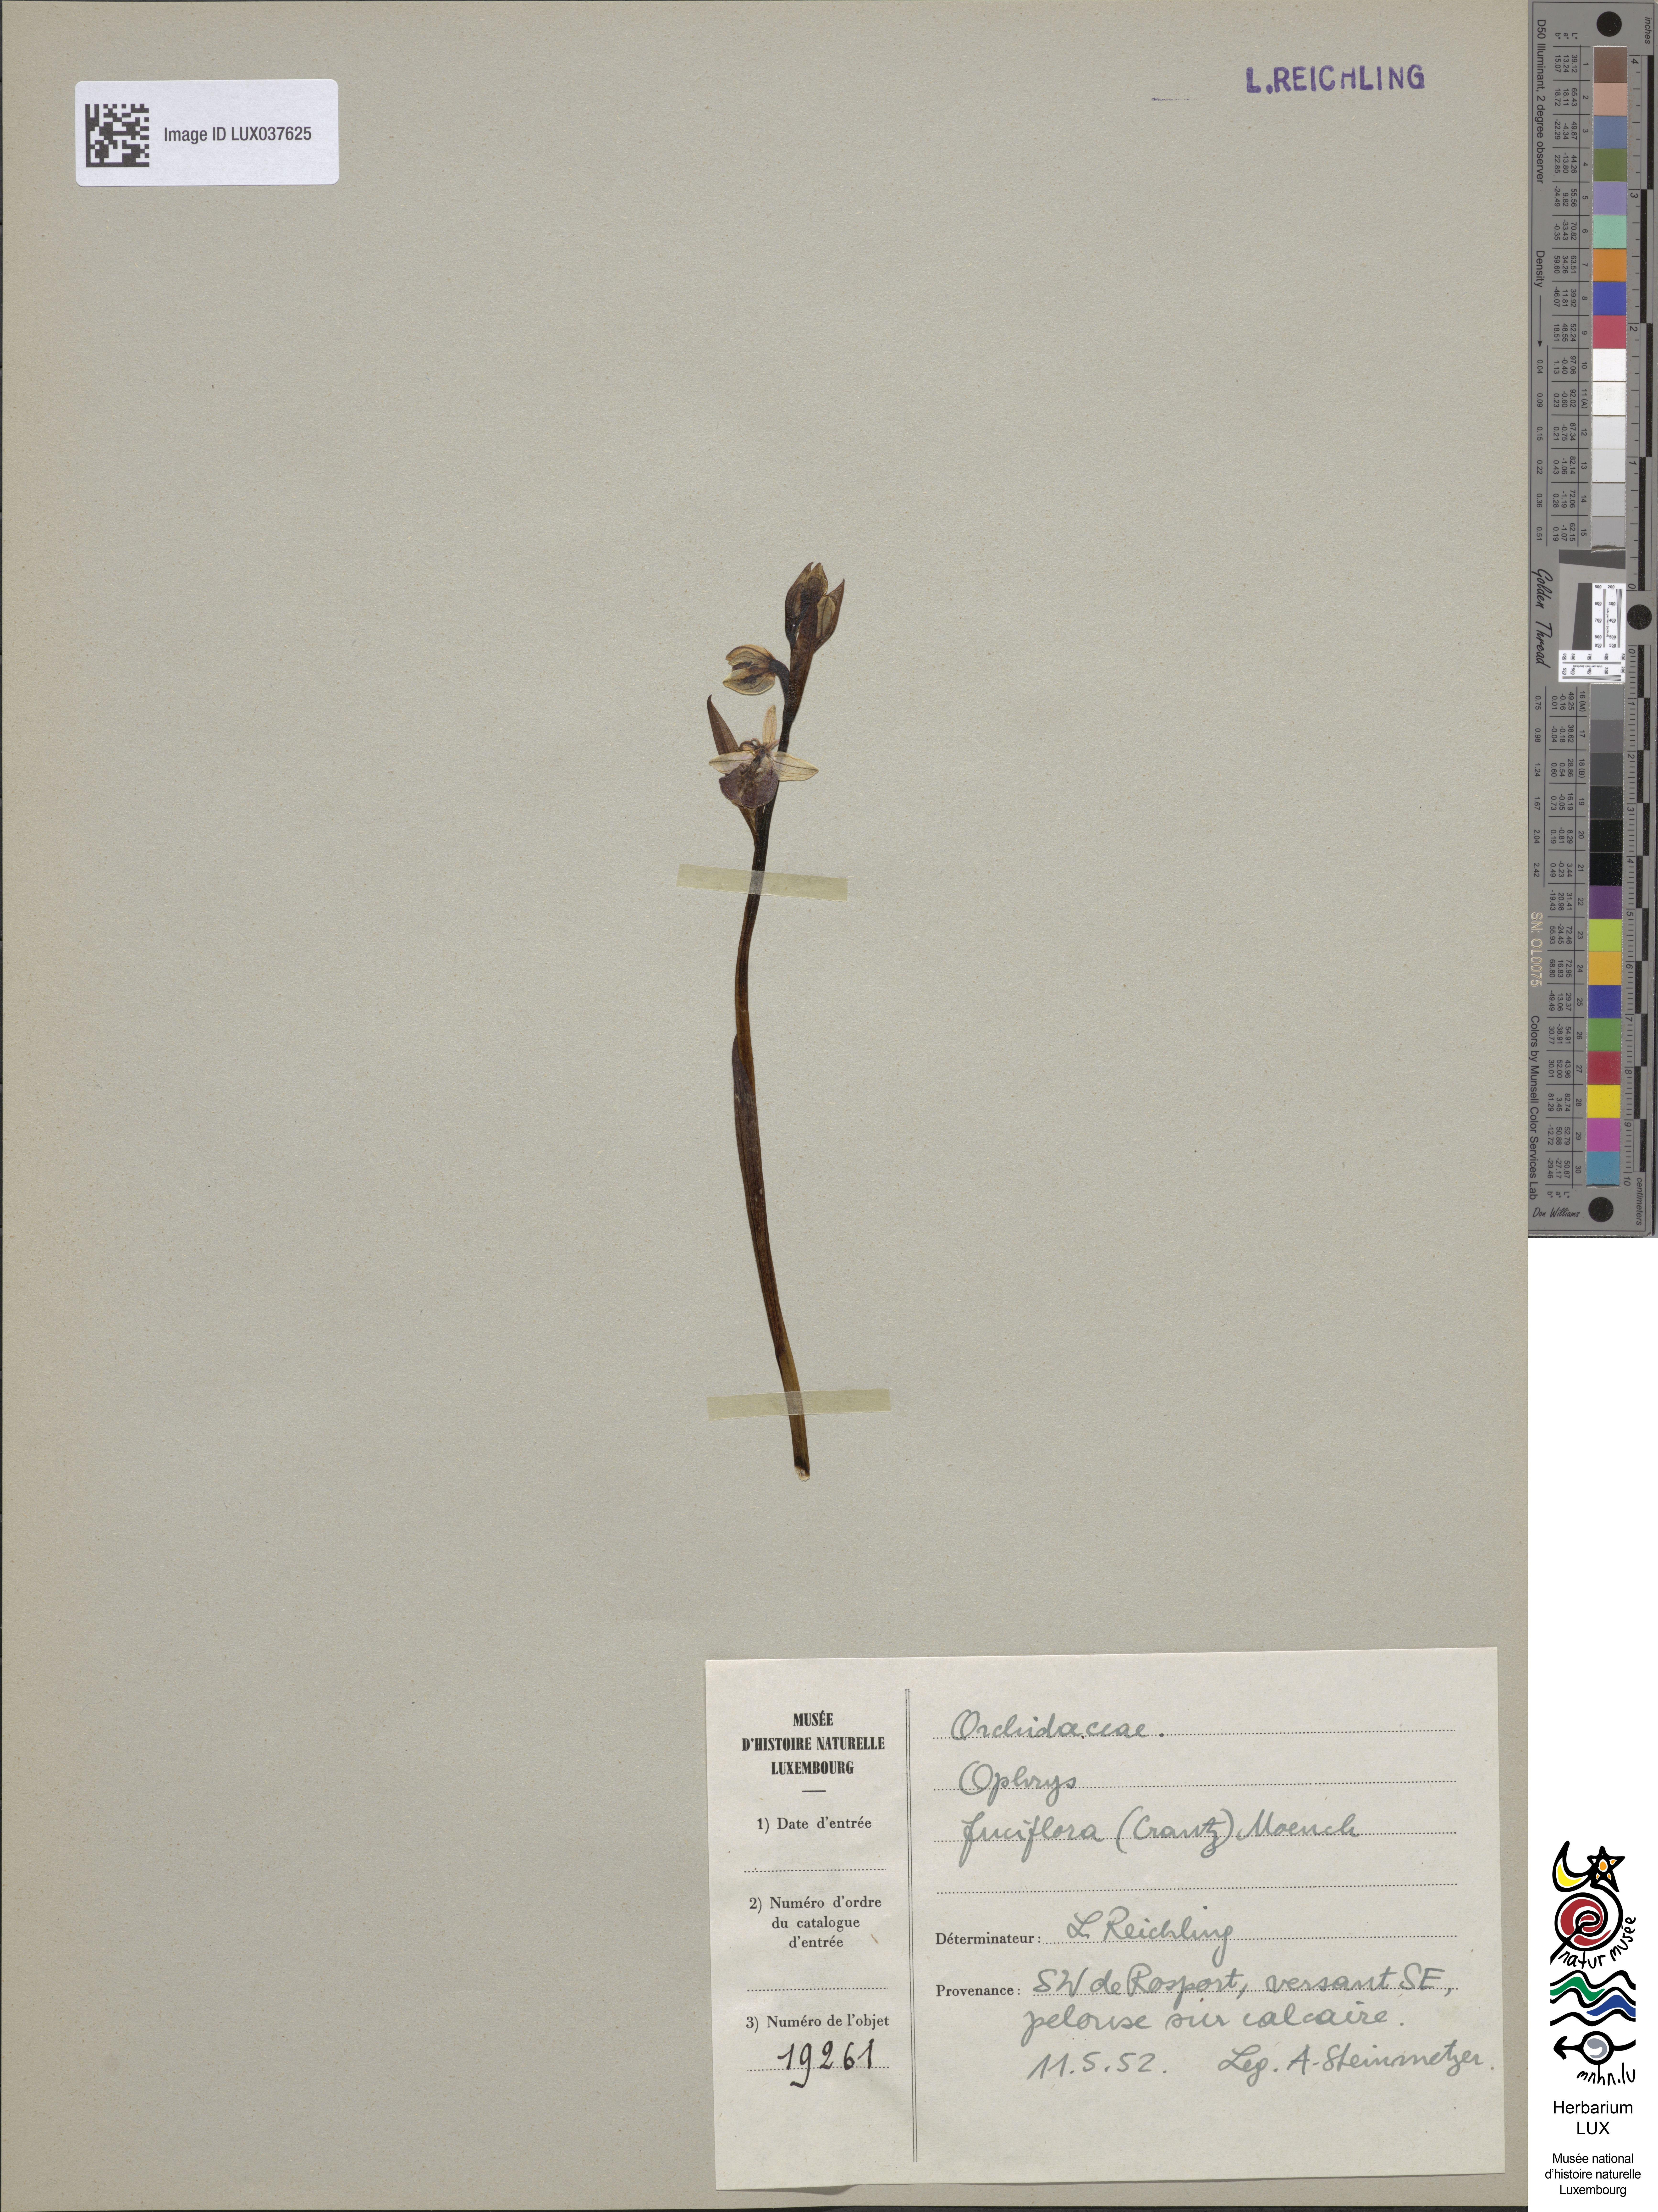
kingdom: Plantae
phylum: Tracheophyta
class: Liliopsida
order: Asparagales
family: Orchidaceae
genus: Ophrys
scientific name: Ophrys holosericea
